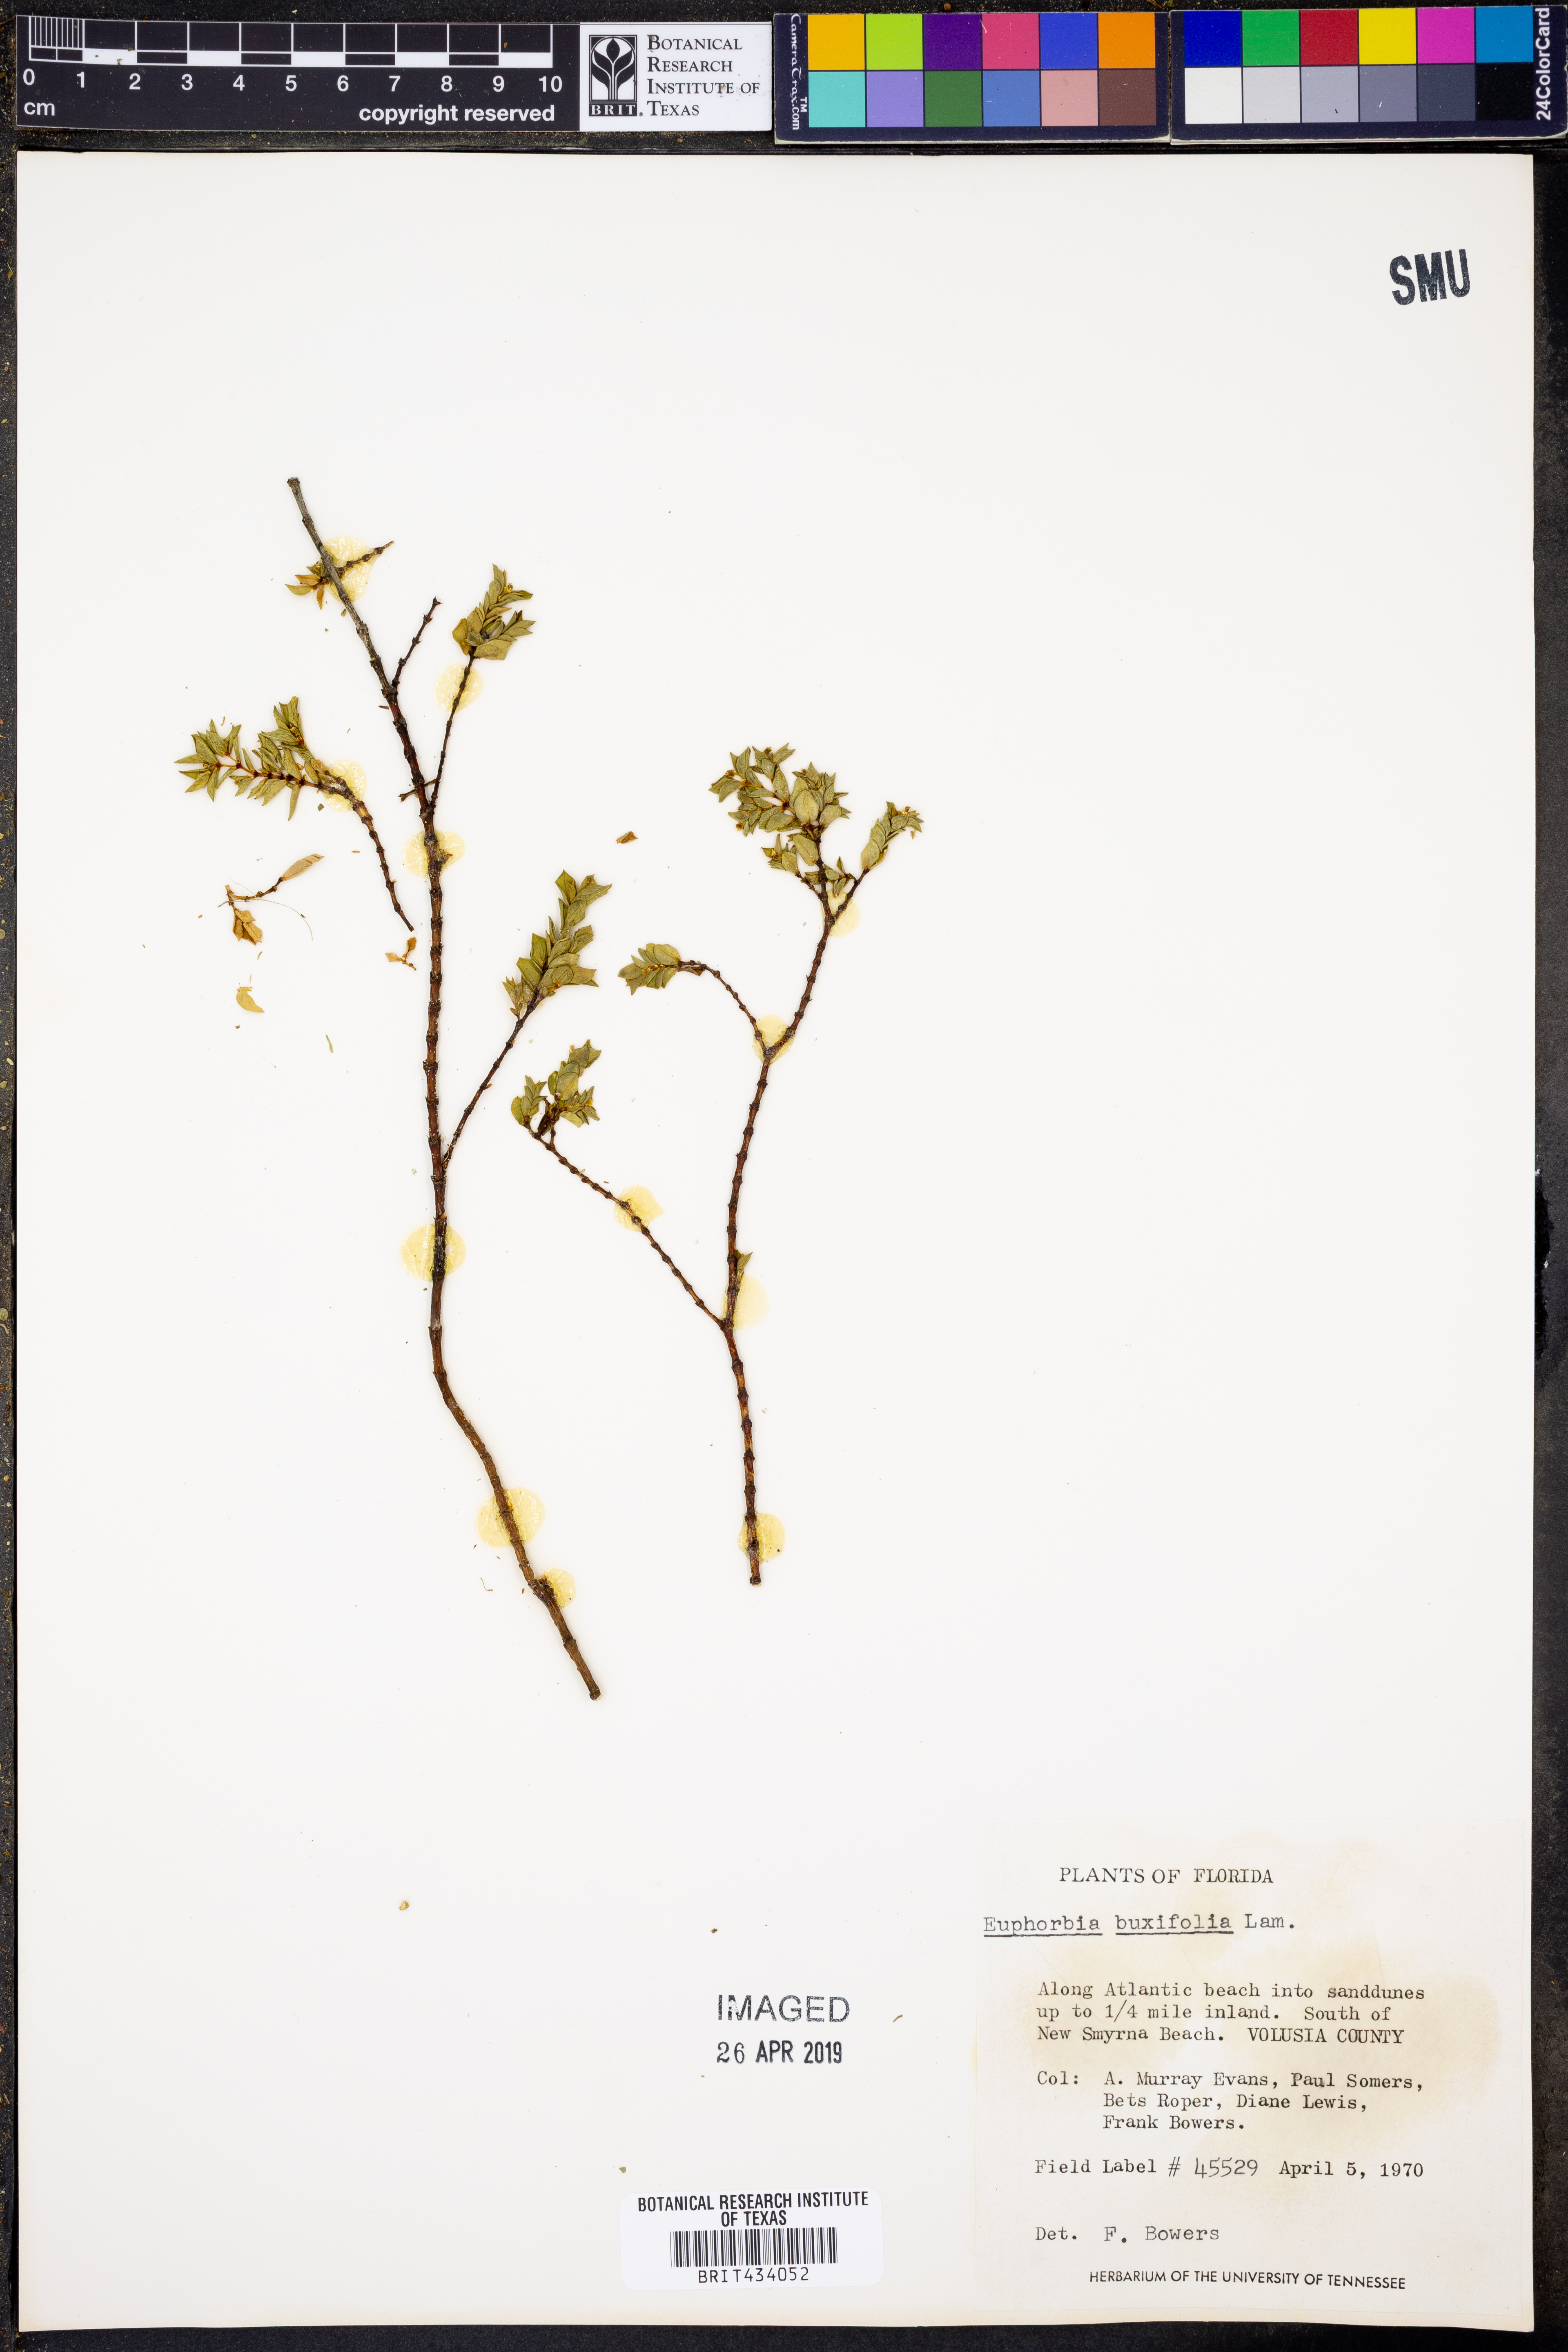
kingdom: Plantae
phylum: Tracheophyta
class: Magnoliopsida
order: Malpighiales
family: Euphorbiaceae
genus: Euphorbia
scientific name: Euphorbia mesembryanthemifolia
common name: Coastal beach sandmat
